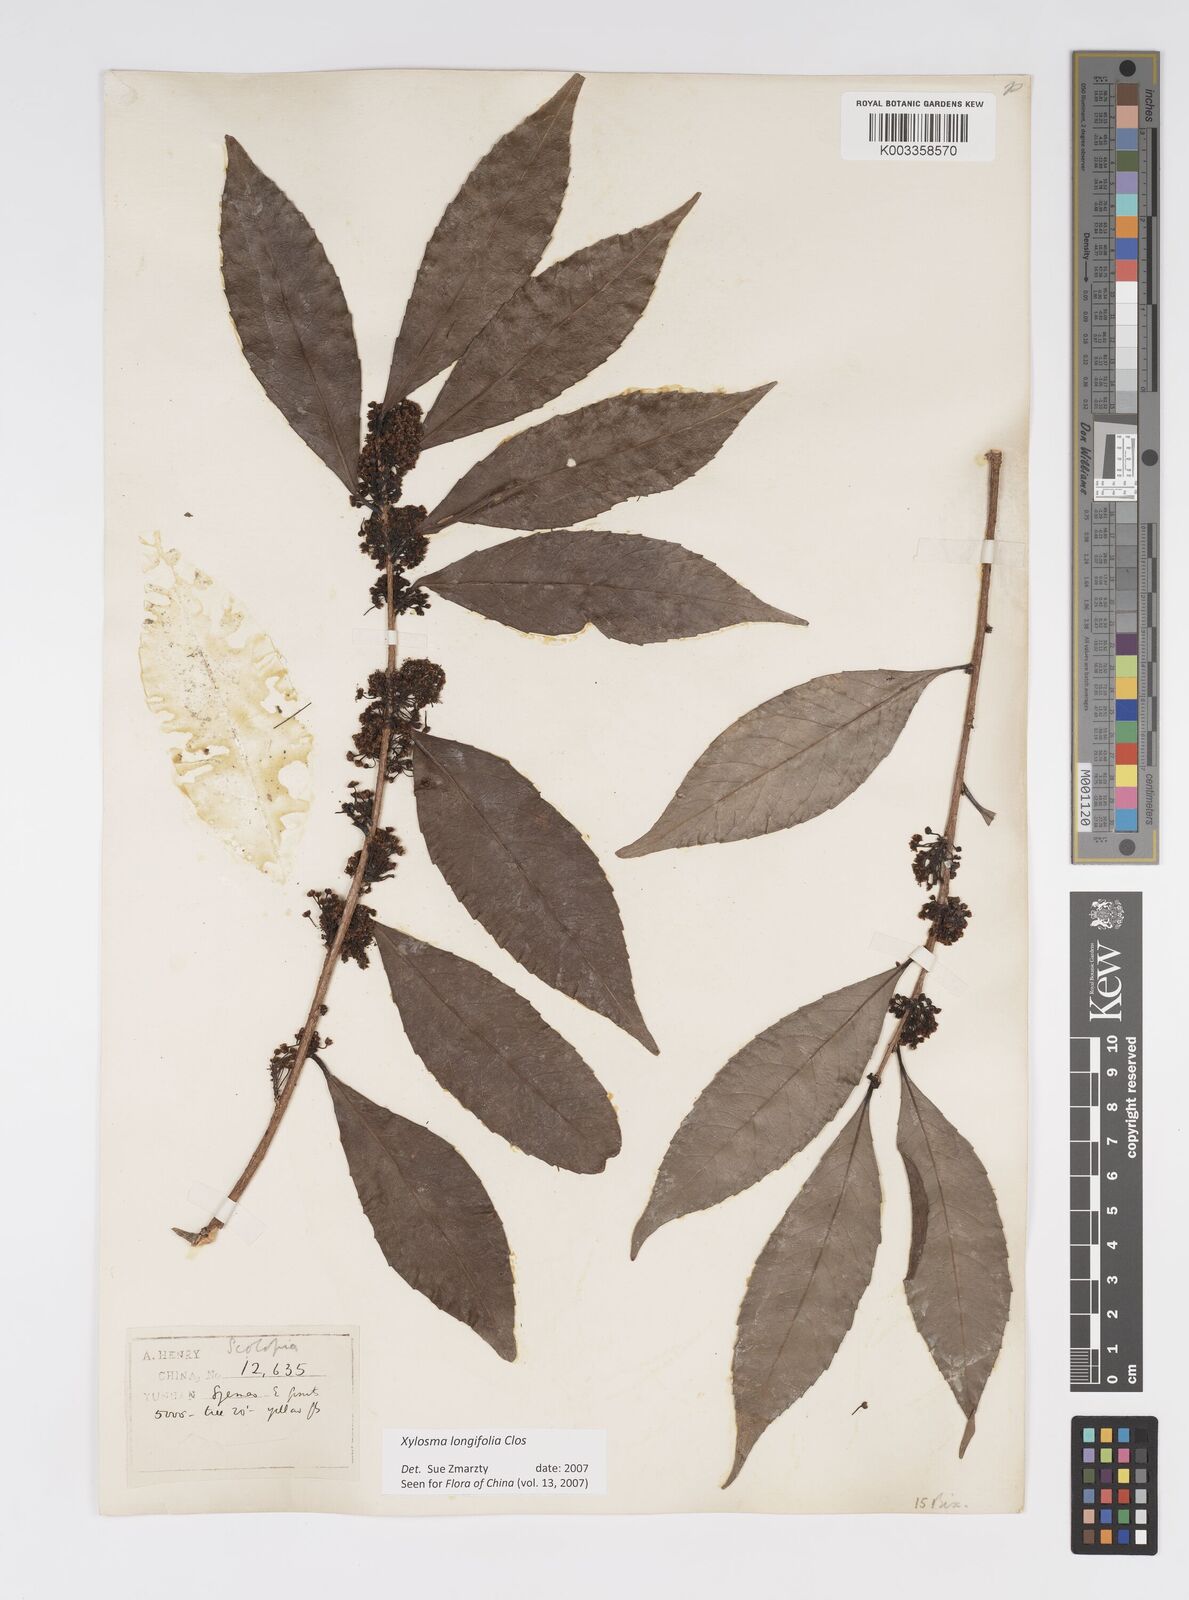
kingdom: Plantae
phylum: Tracheophyta
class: Magnoliopsida
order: Malpighiales
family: Salicaceae
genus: Xylosma
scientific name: Xylosma longifolia
